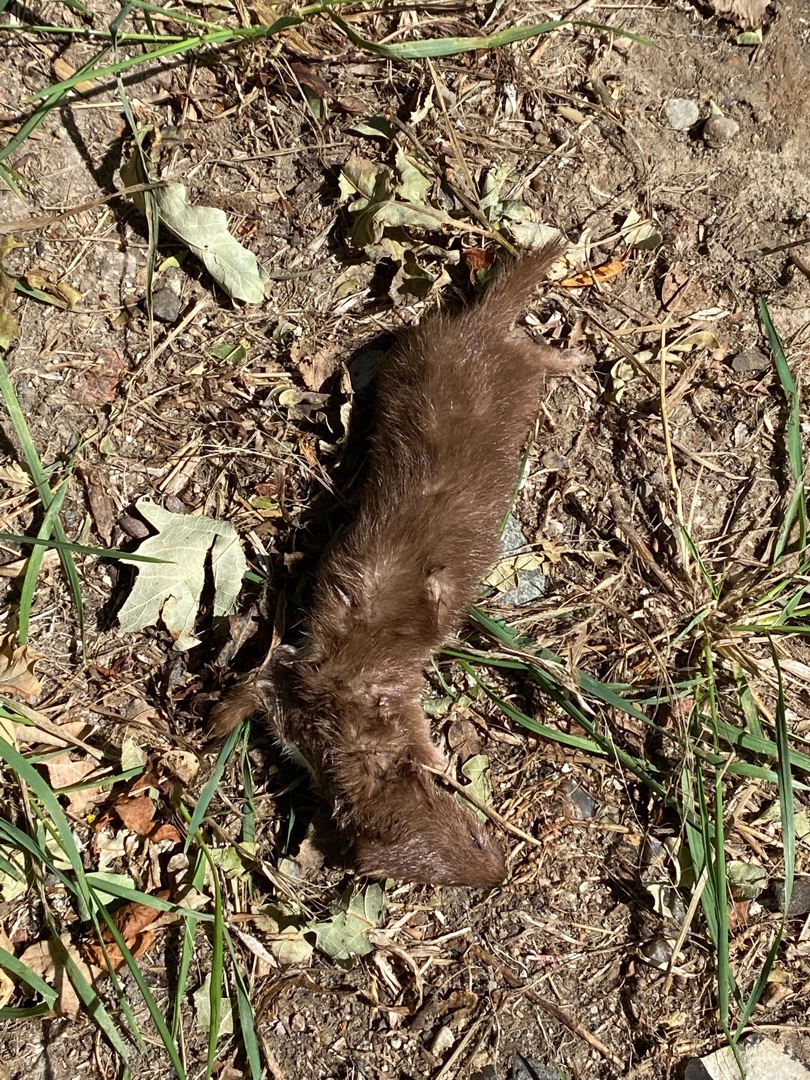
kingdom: Animalia
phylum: Chordata
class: Mammalia
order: Carnivora
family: Mustelidae
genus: Mustela
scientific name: Mustela nivalis
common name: Brud
